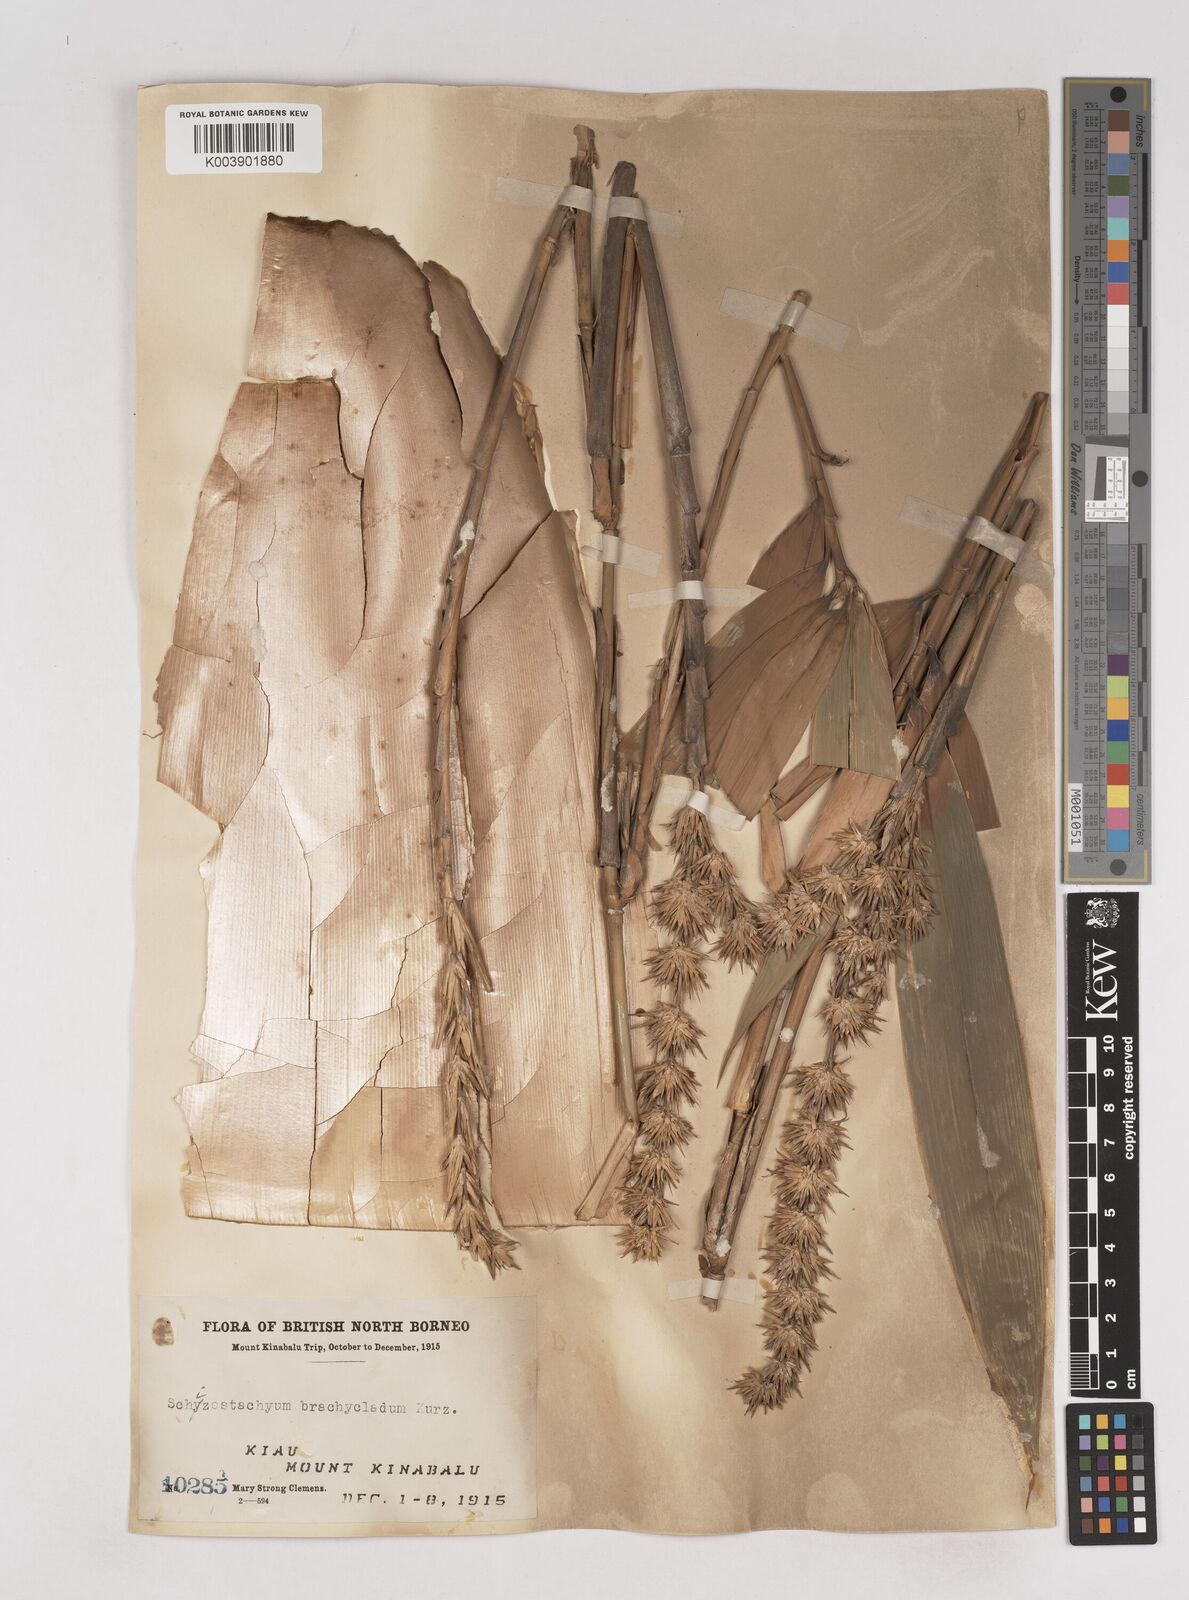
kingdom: Plantae
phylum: Tracheophyta
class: Liliopsida
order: Poales
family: Poaceae
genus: Schizostachyum
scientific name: Schizostachyum brachycladum
